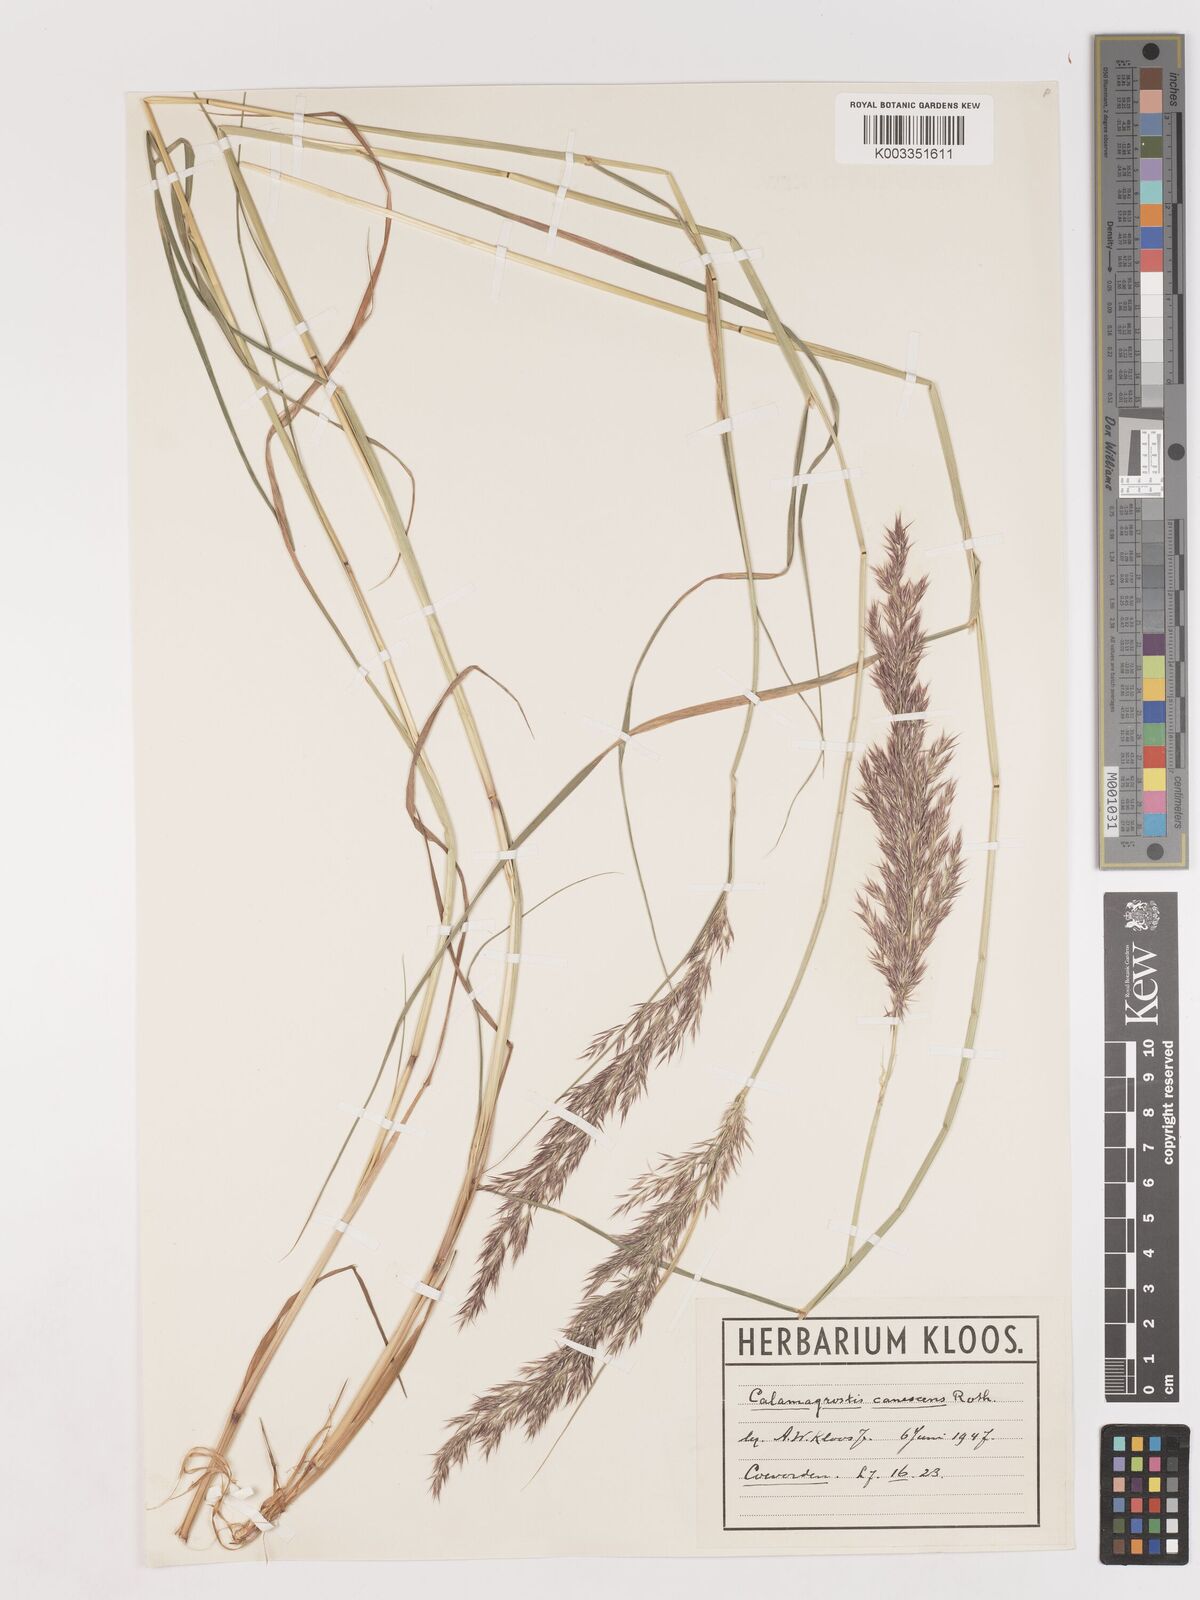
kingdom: Plantae
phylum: Tracheophyta
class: Liliopsida
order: Poales
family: Poaceae
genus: Calamagrostis
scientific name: Calamagrostis canescens
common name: Purple small-reed
